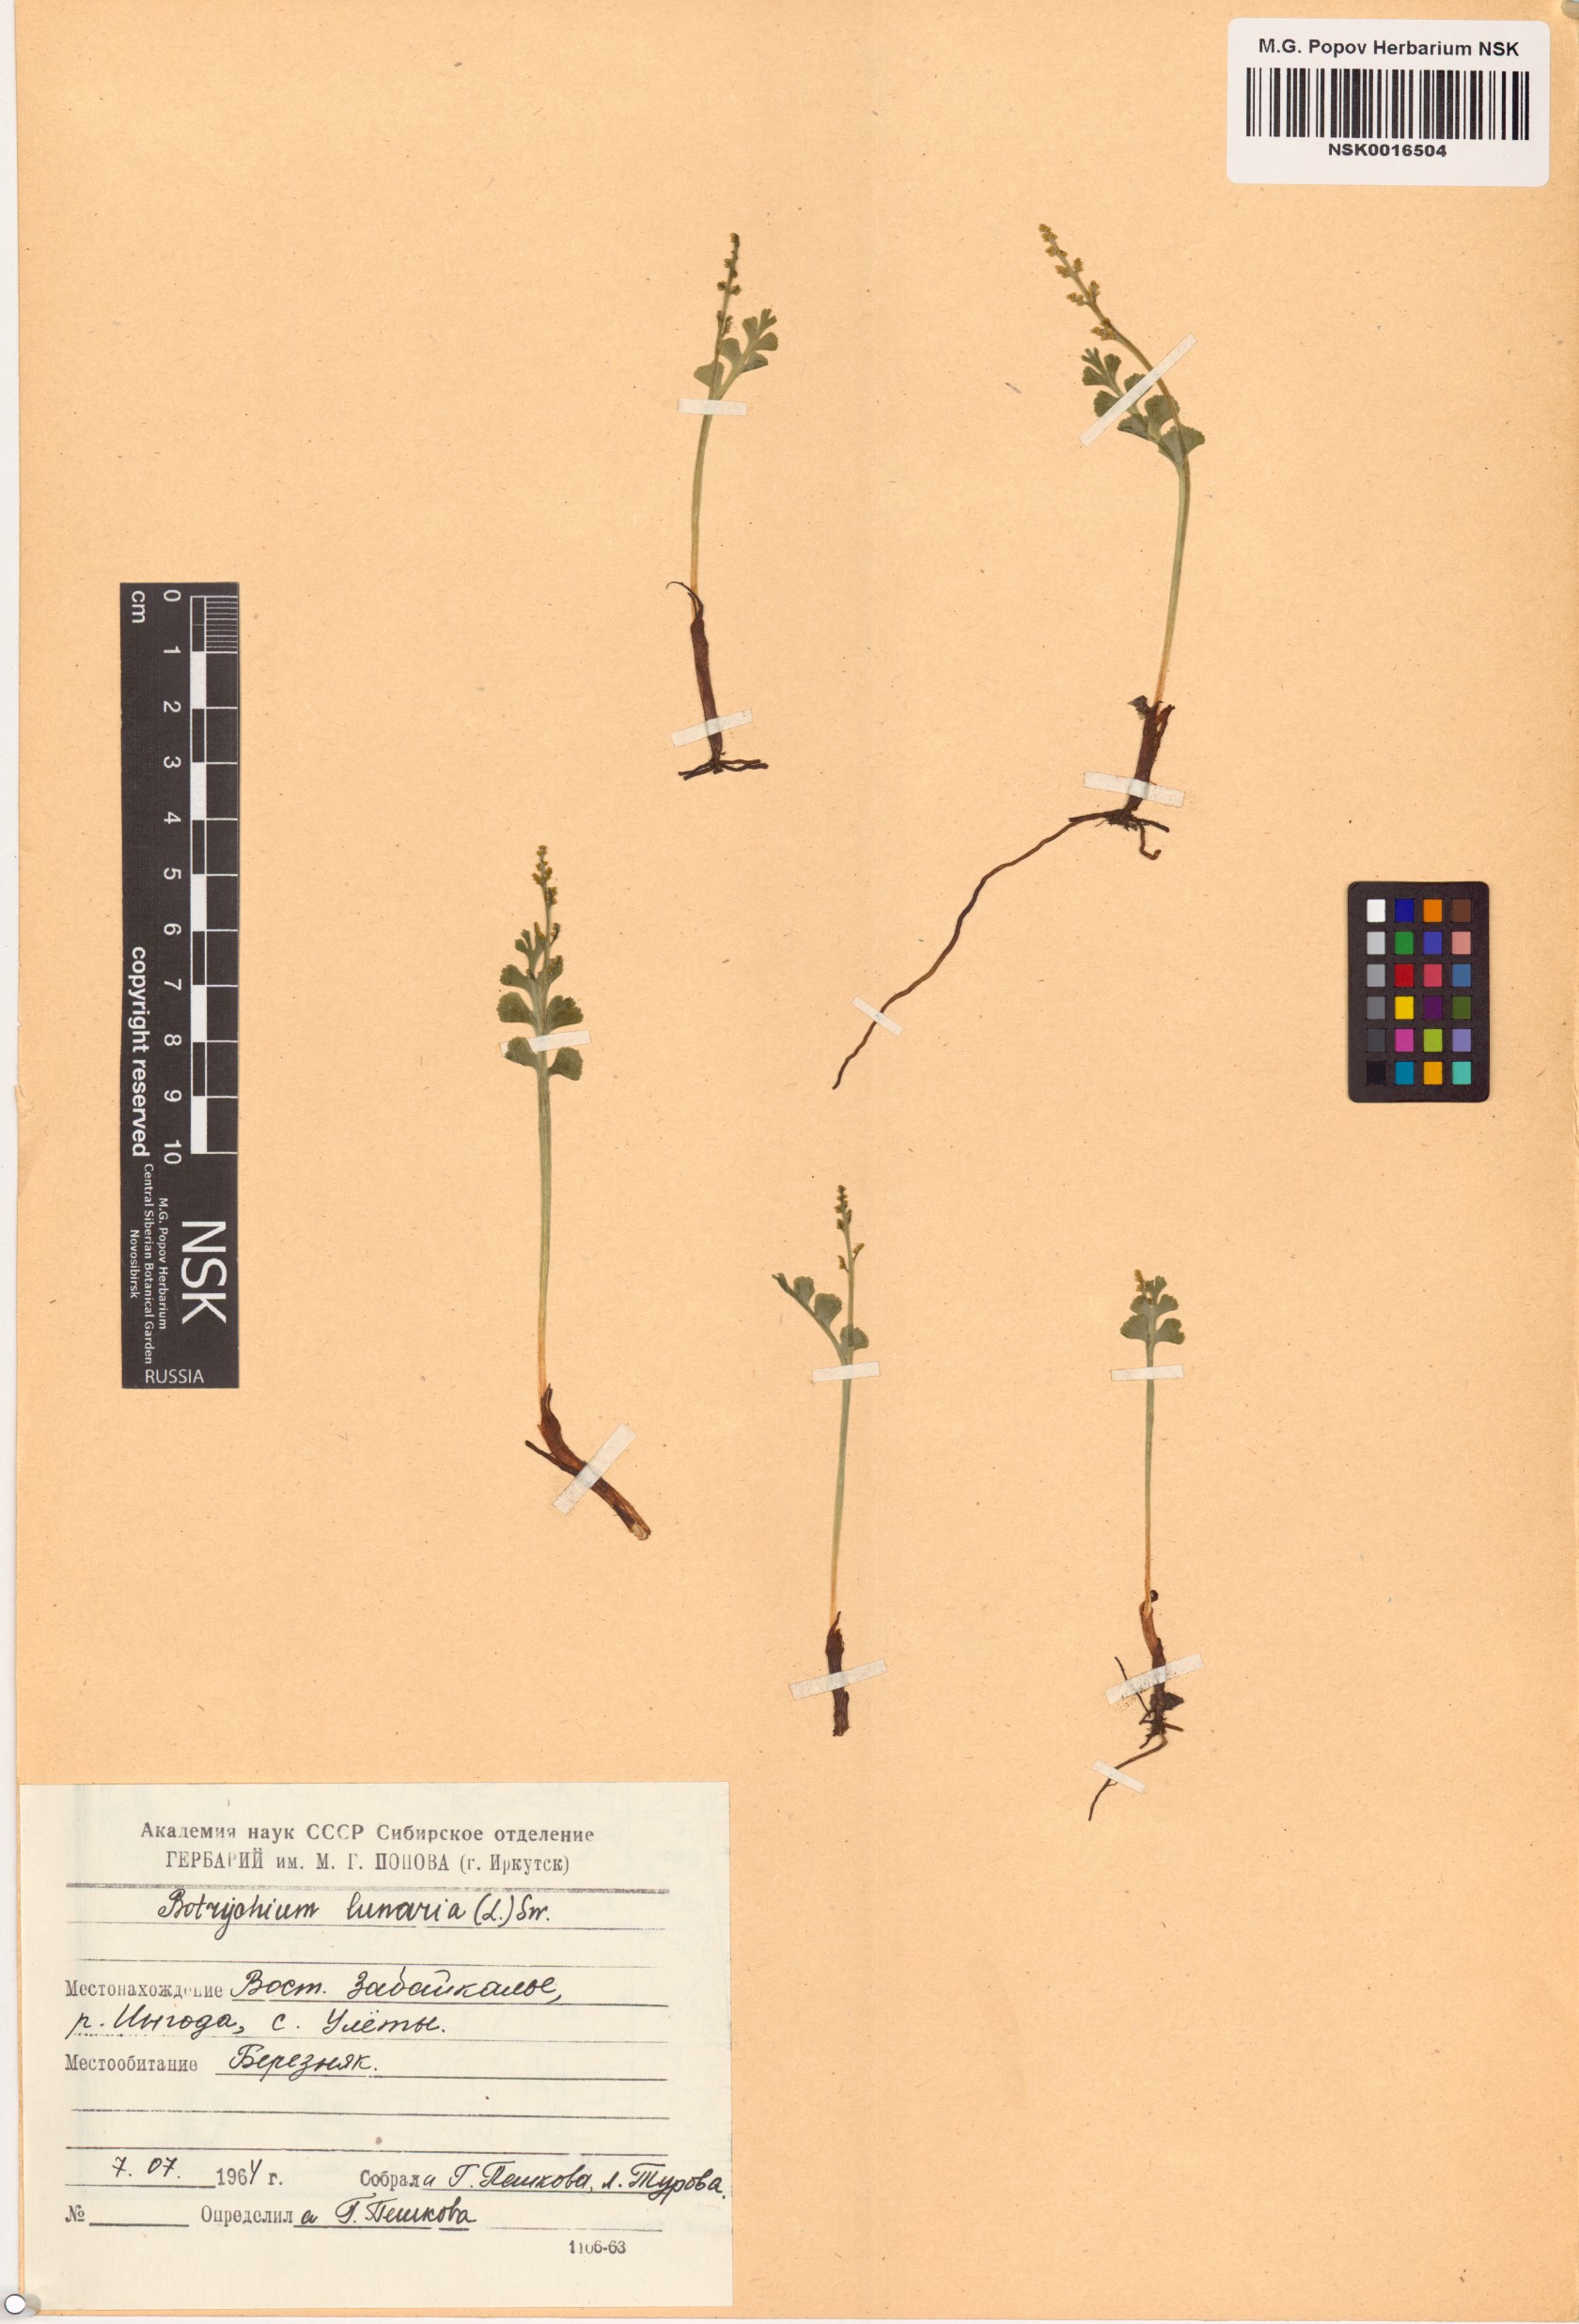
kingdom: Plantae
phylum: Tracheophyta
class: Polypodiopsida
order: Ophioglossales
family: Ophioglossaceae
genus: Botrychium
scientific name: Botrychium lunaria
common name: Moonwort
